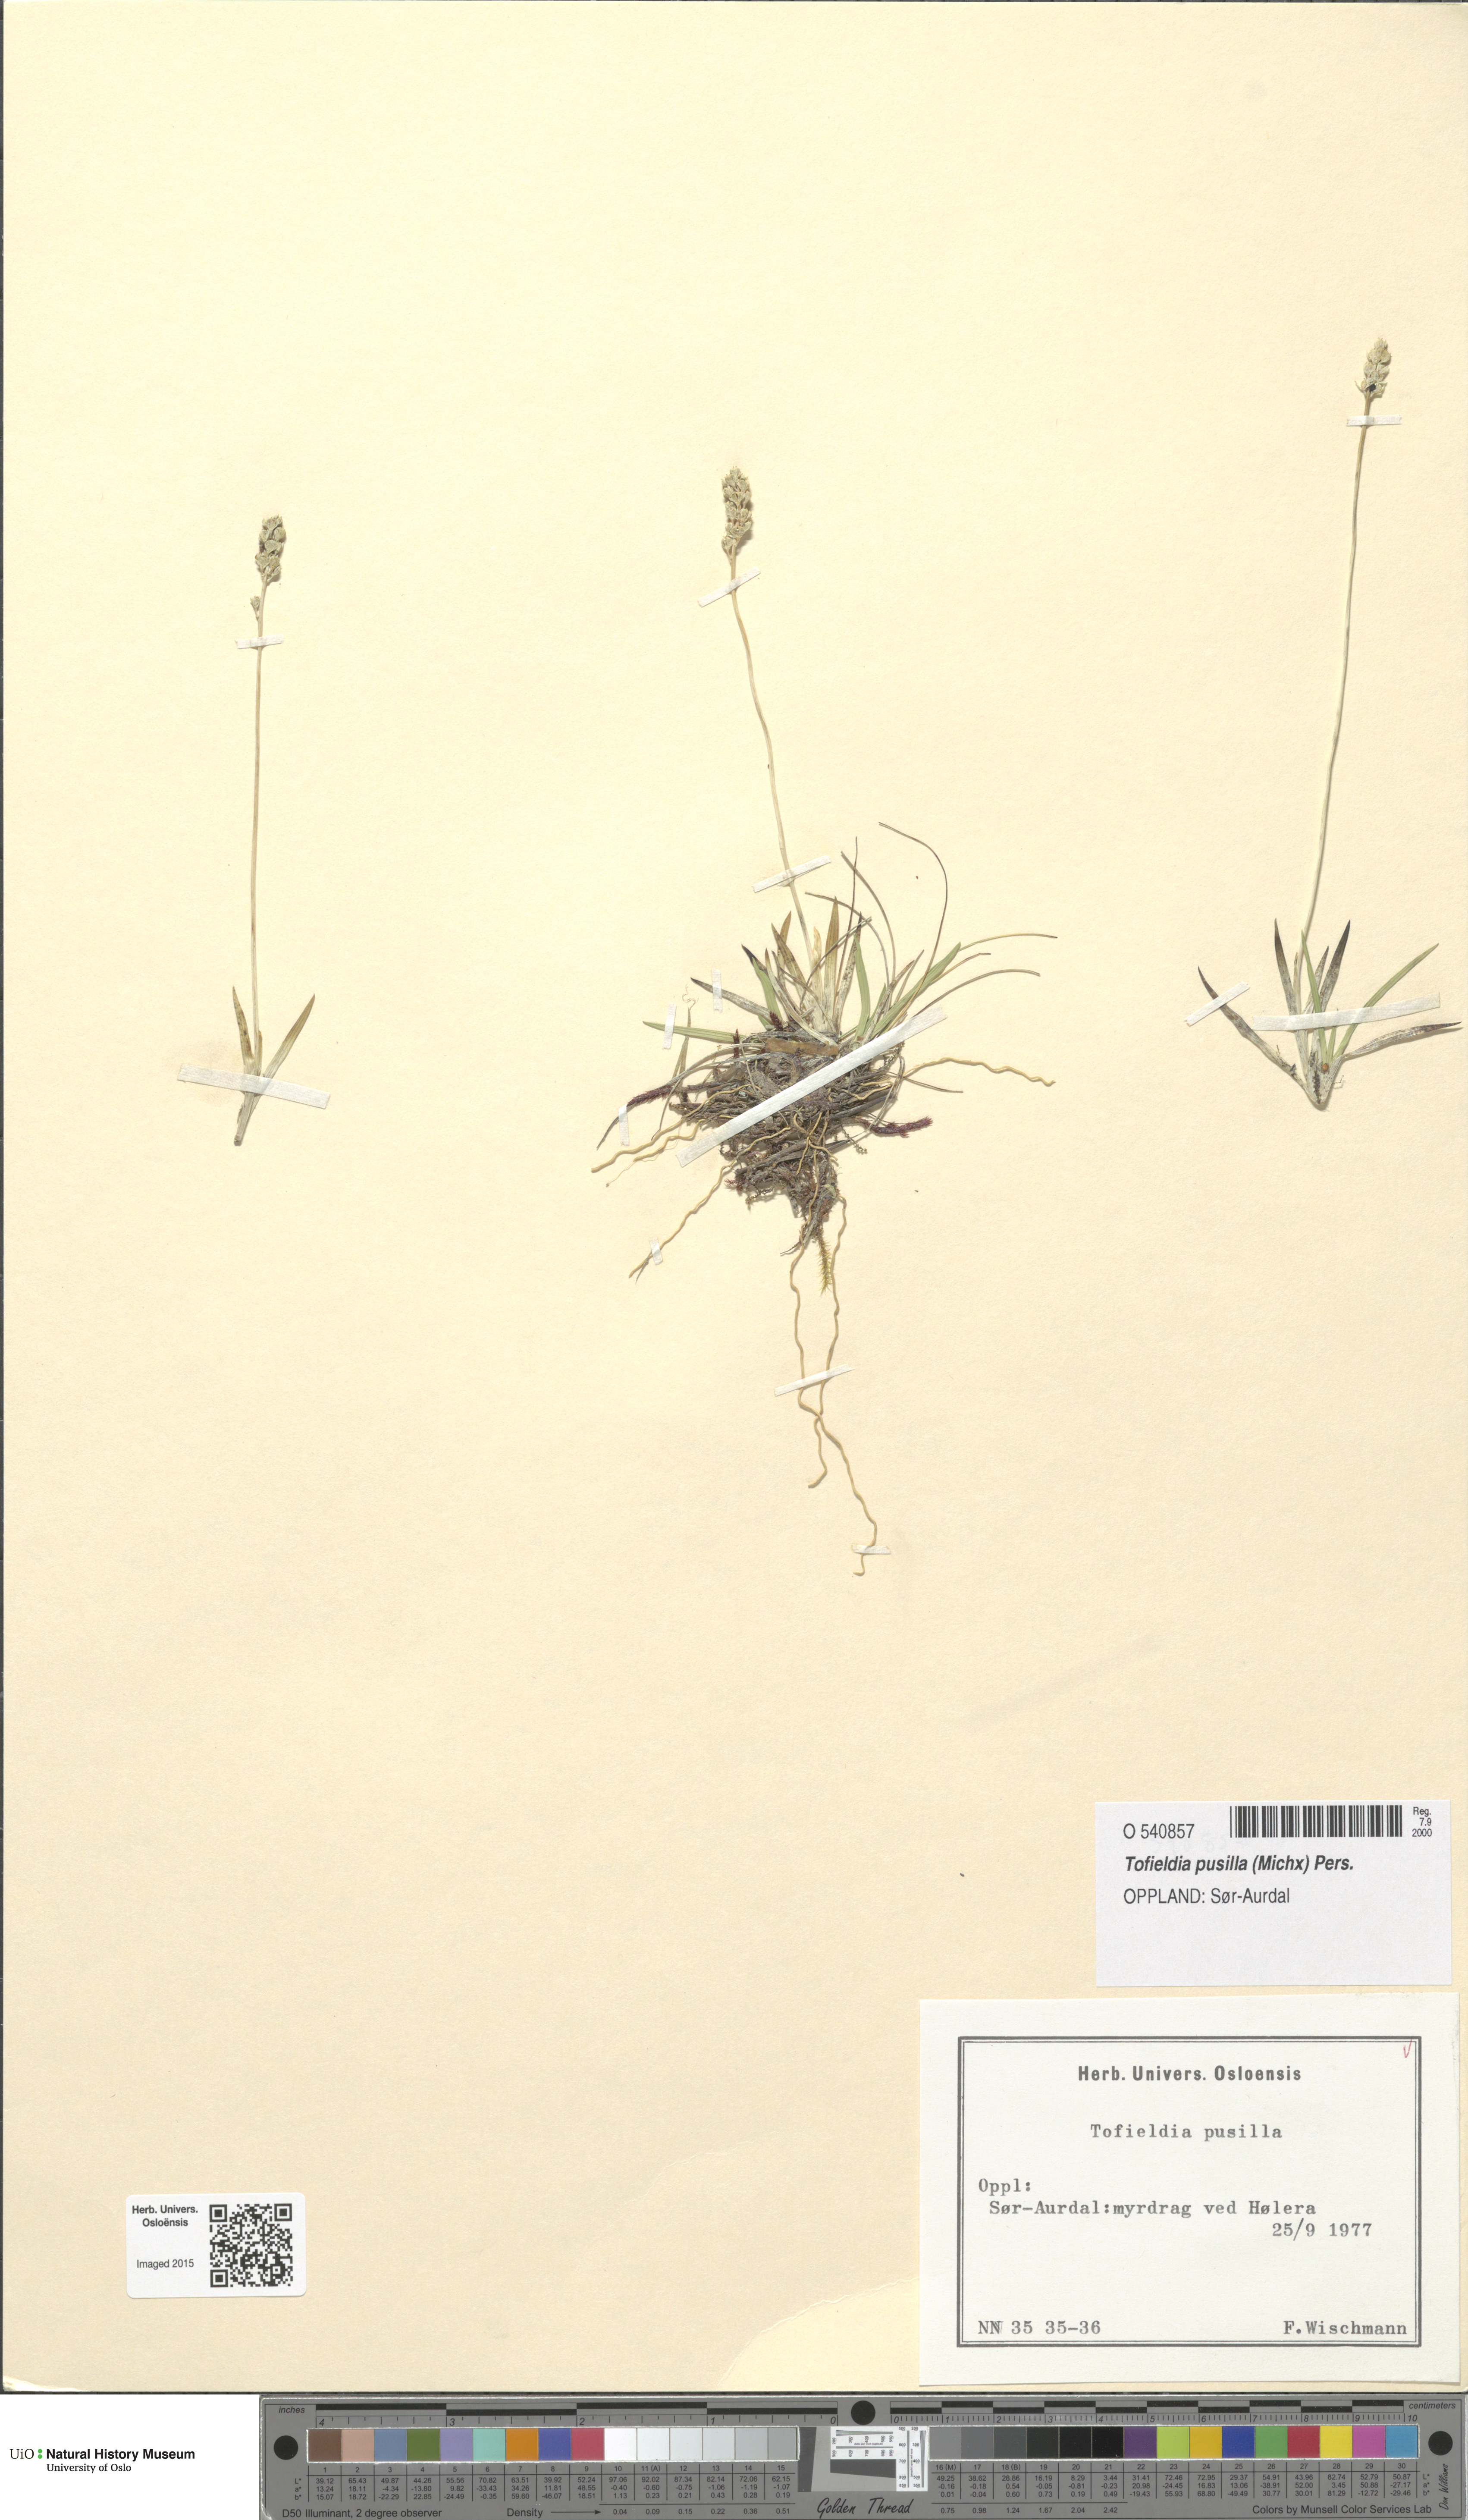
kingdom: Plantae
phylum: Tracheophyta
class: Liliopsida
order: Alismatales
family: Tofieldiaceae
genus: Tofieldia
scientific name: Tofieldia pusilla
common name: Scottish false asphodel
